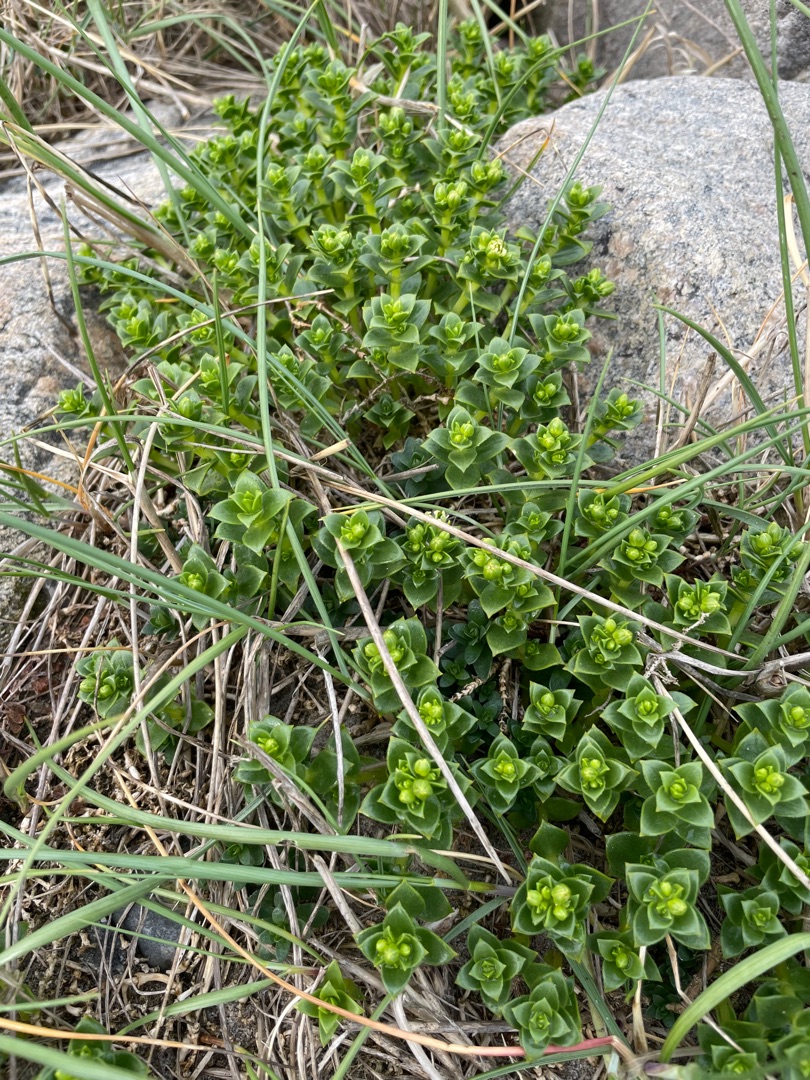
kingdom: Plantae
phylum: Tracheophyta
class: Magnoliopsida
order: Caryophyllales
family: Caryophyllaceae
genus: Honckenya
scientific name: Honckenya peploides
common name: Strandarve
